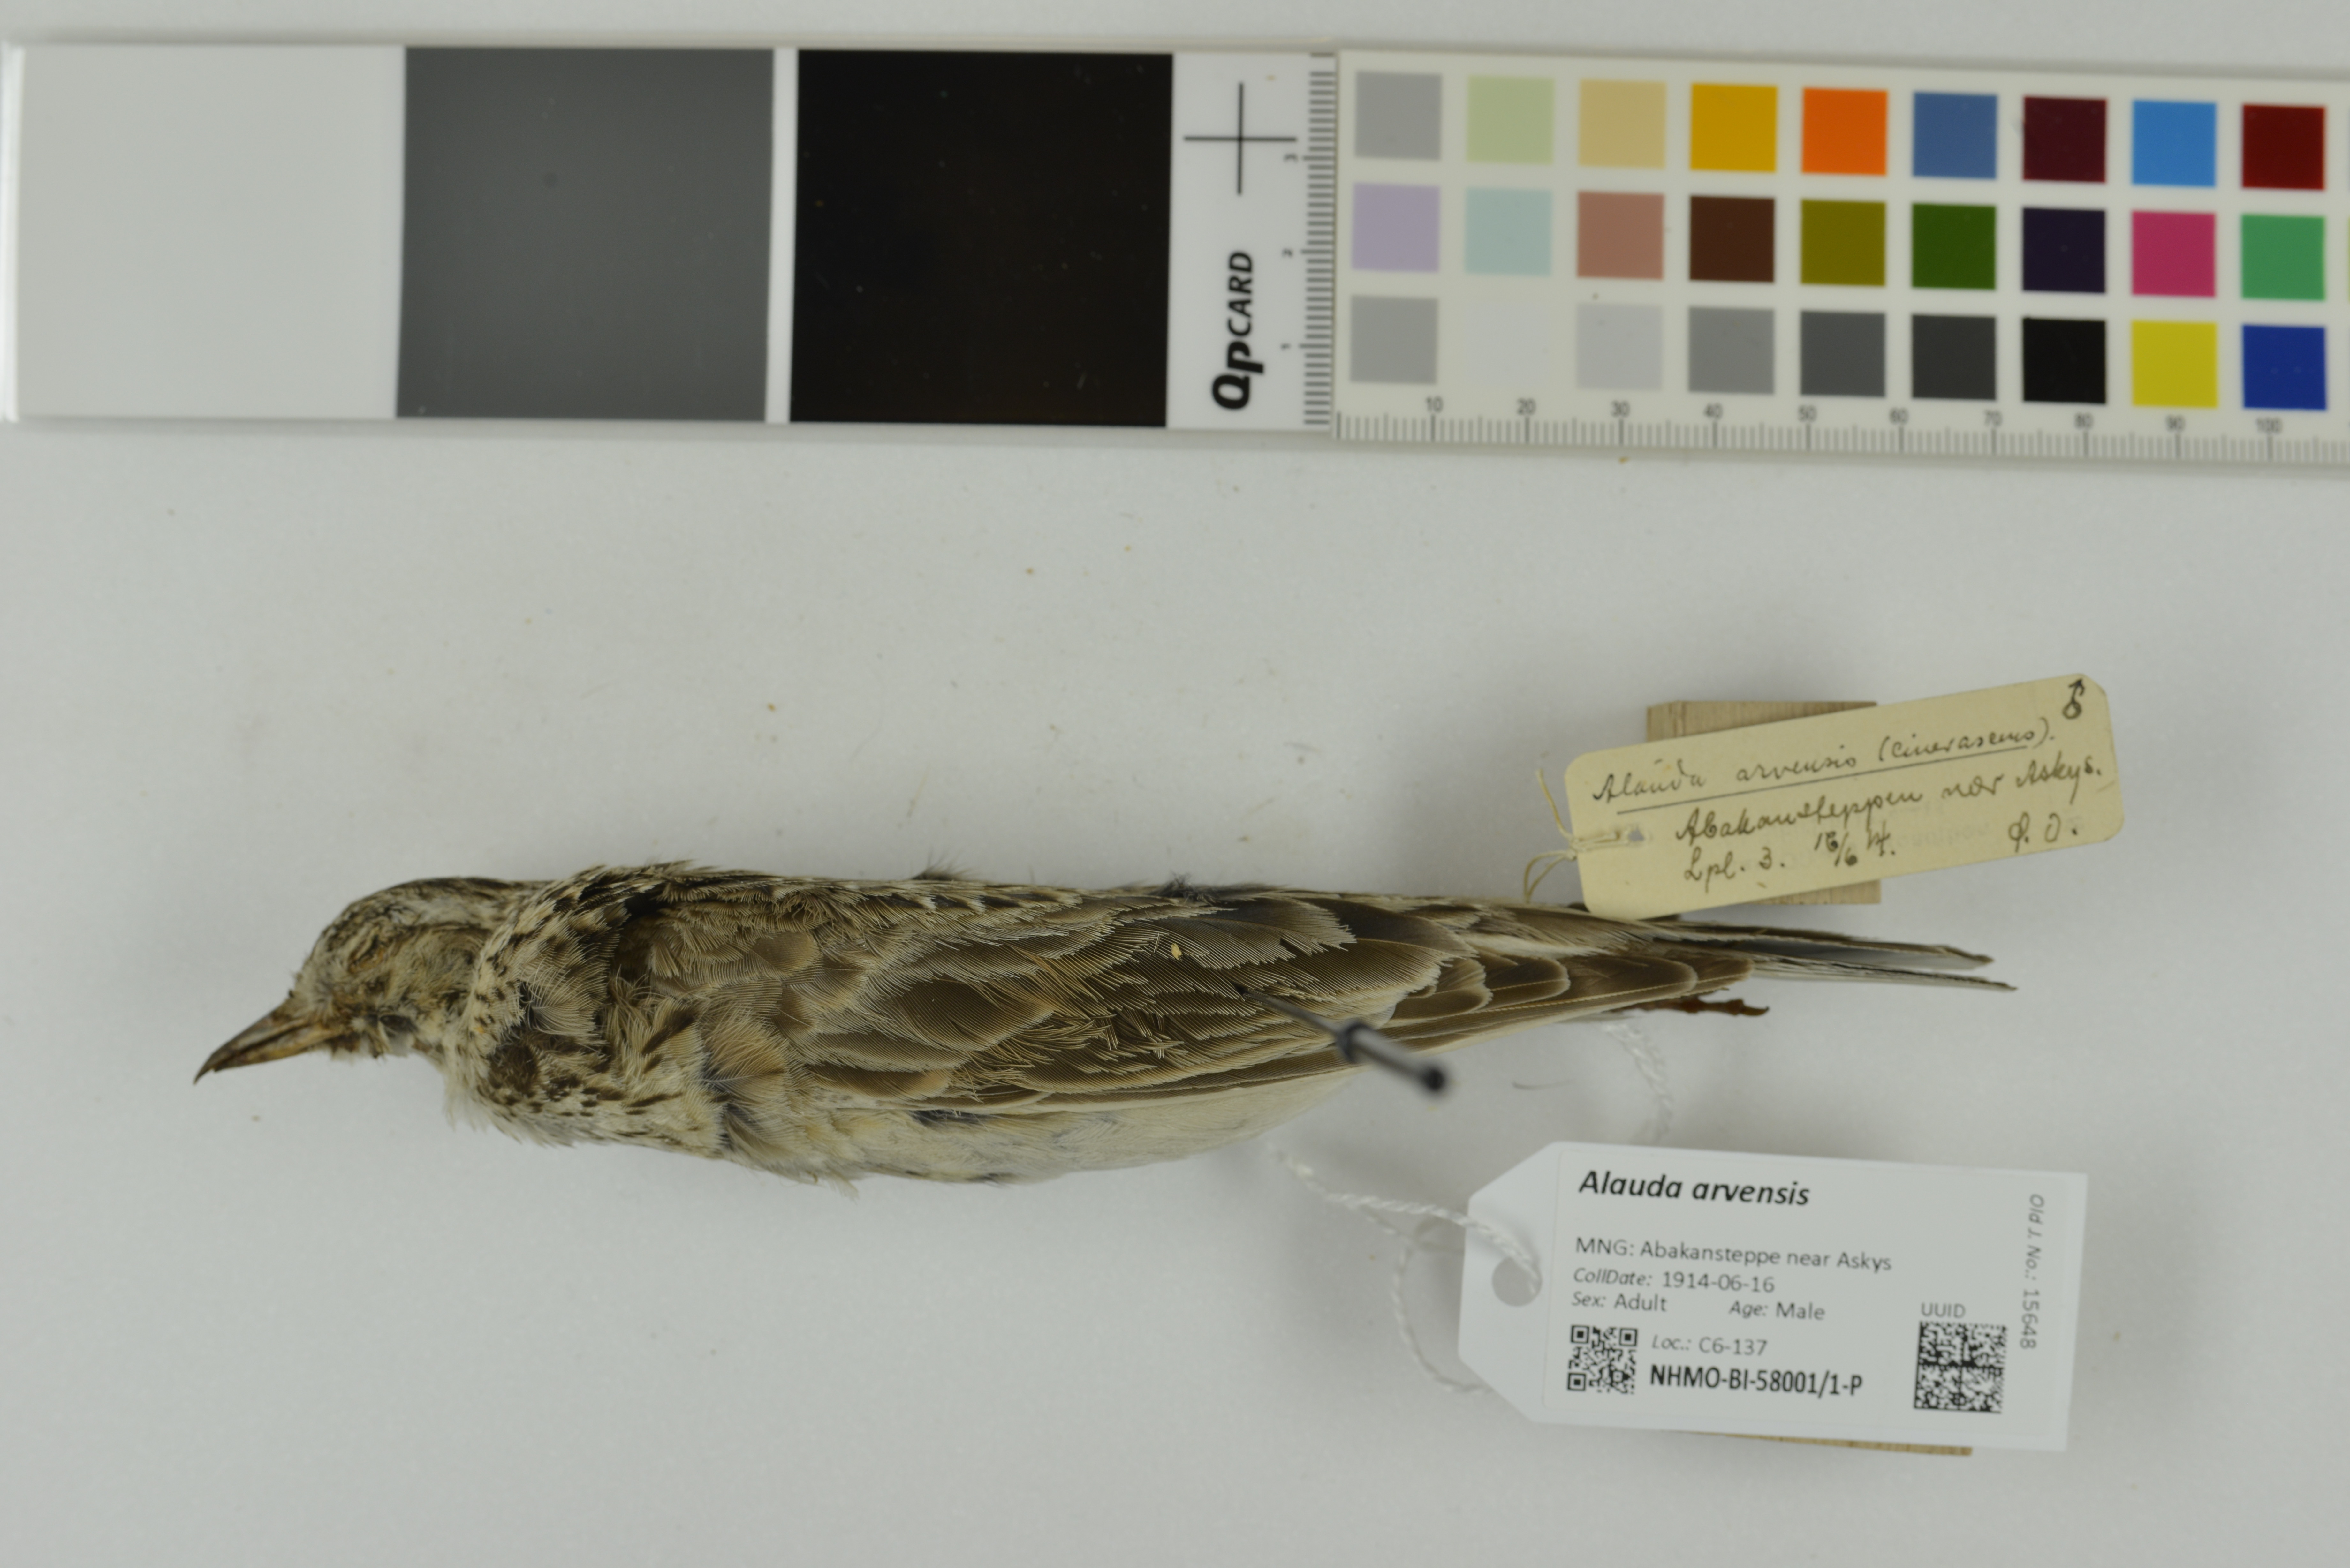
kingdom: Animalia
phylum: Chordata
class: Aves
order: Passeriformes
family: Alaudidae
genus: Alauda
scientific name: Alauda arvensis
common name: Eurasian skylark
